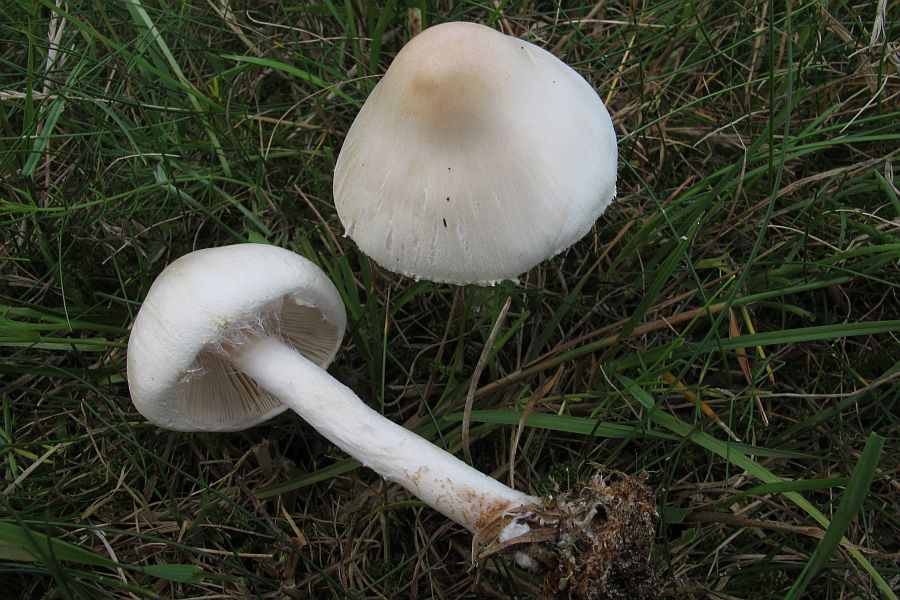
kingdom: Fungi
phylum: Basidiomycota
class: Agaricomycetes
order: Agaricales
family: Agaricaceae
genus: Lepiota
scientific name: Lepiota erminea
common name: hvid parasolhat
